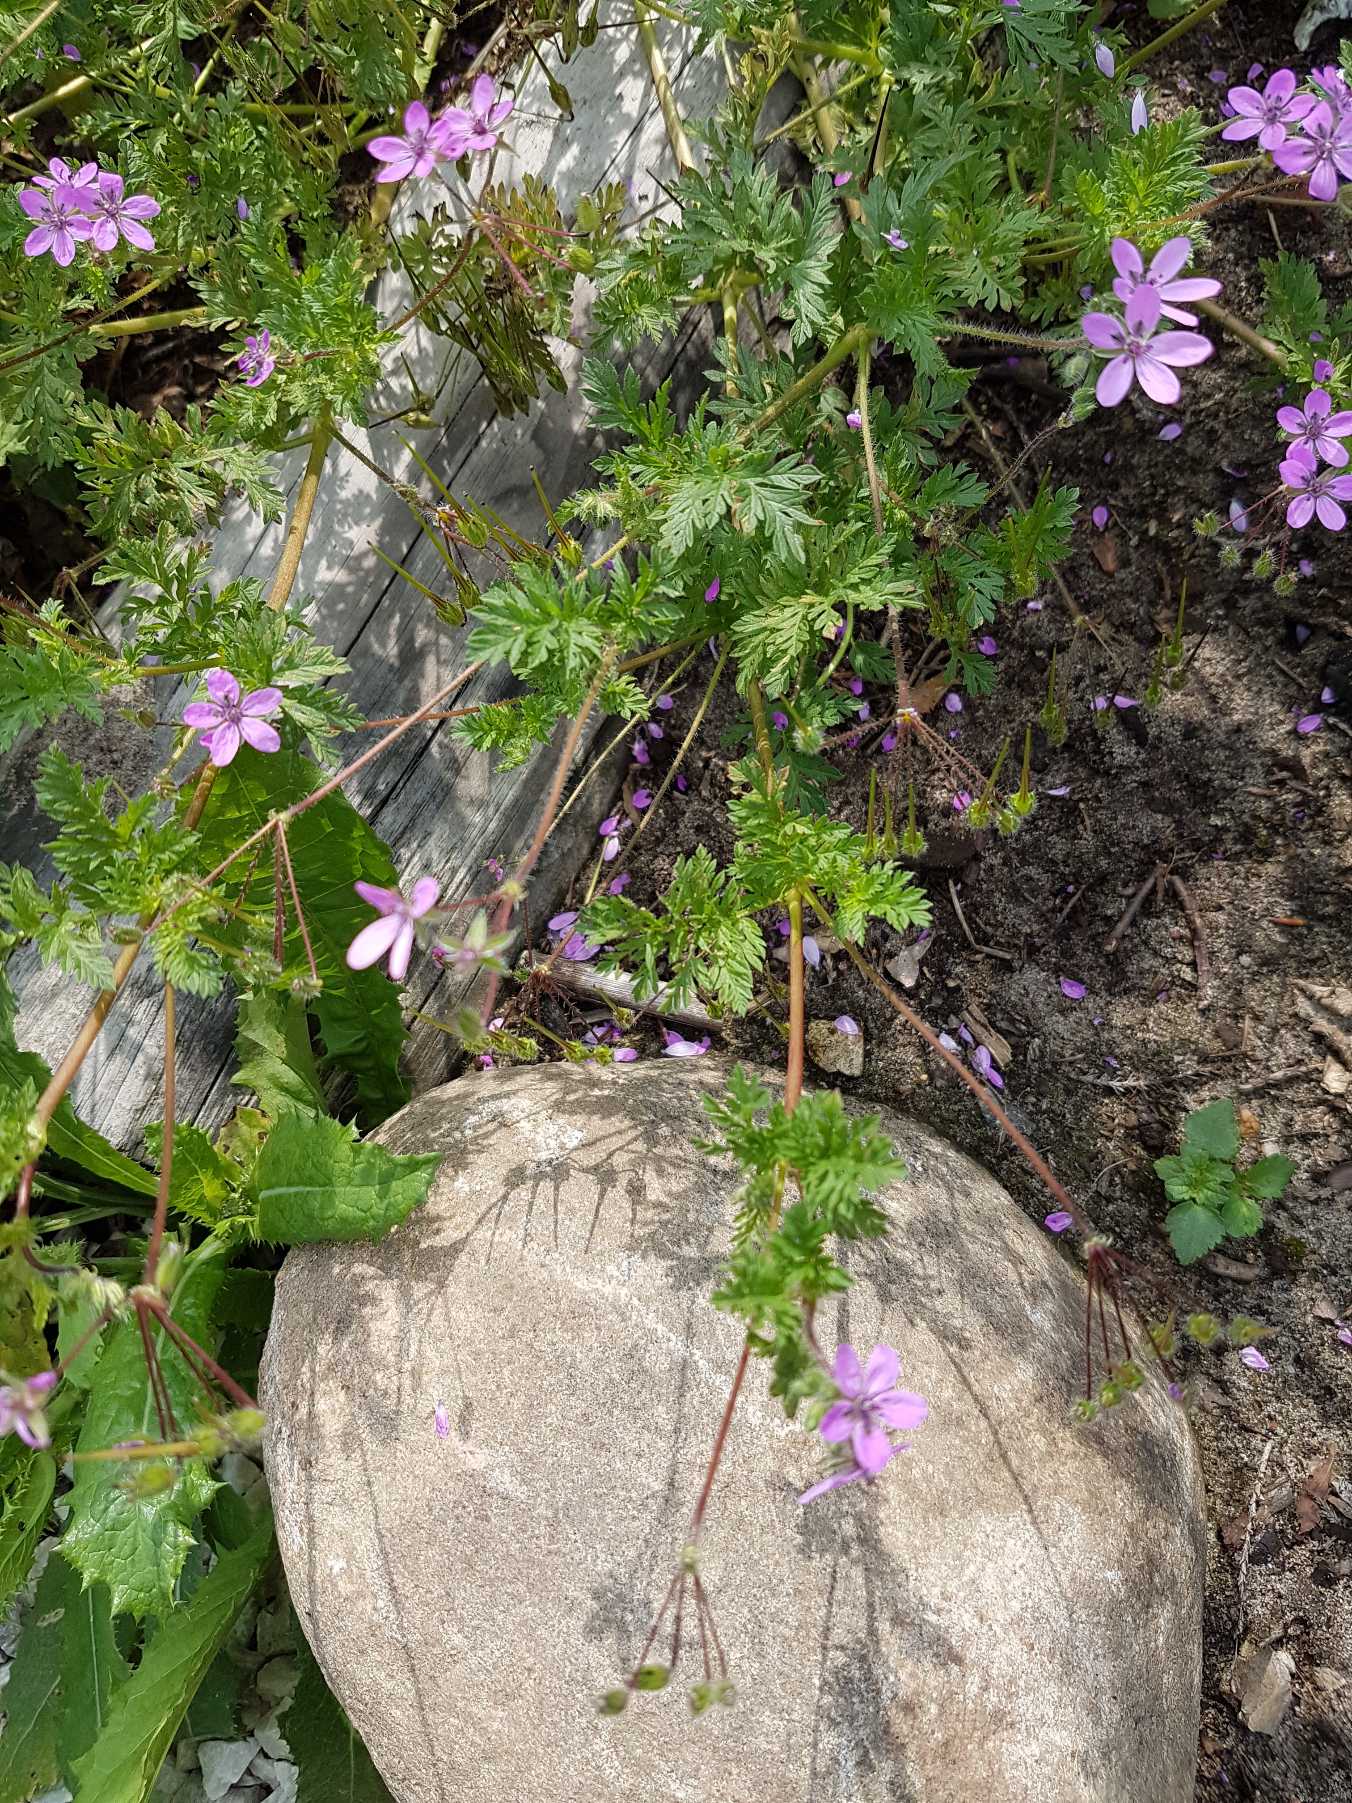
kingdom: Plantae
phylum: Tracheophyta
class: Magnoliopsida
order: Geraniales
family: Geraniaceae
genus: Erodium
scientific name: Erodium cicutarium
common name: Hejrenæb
